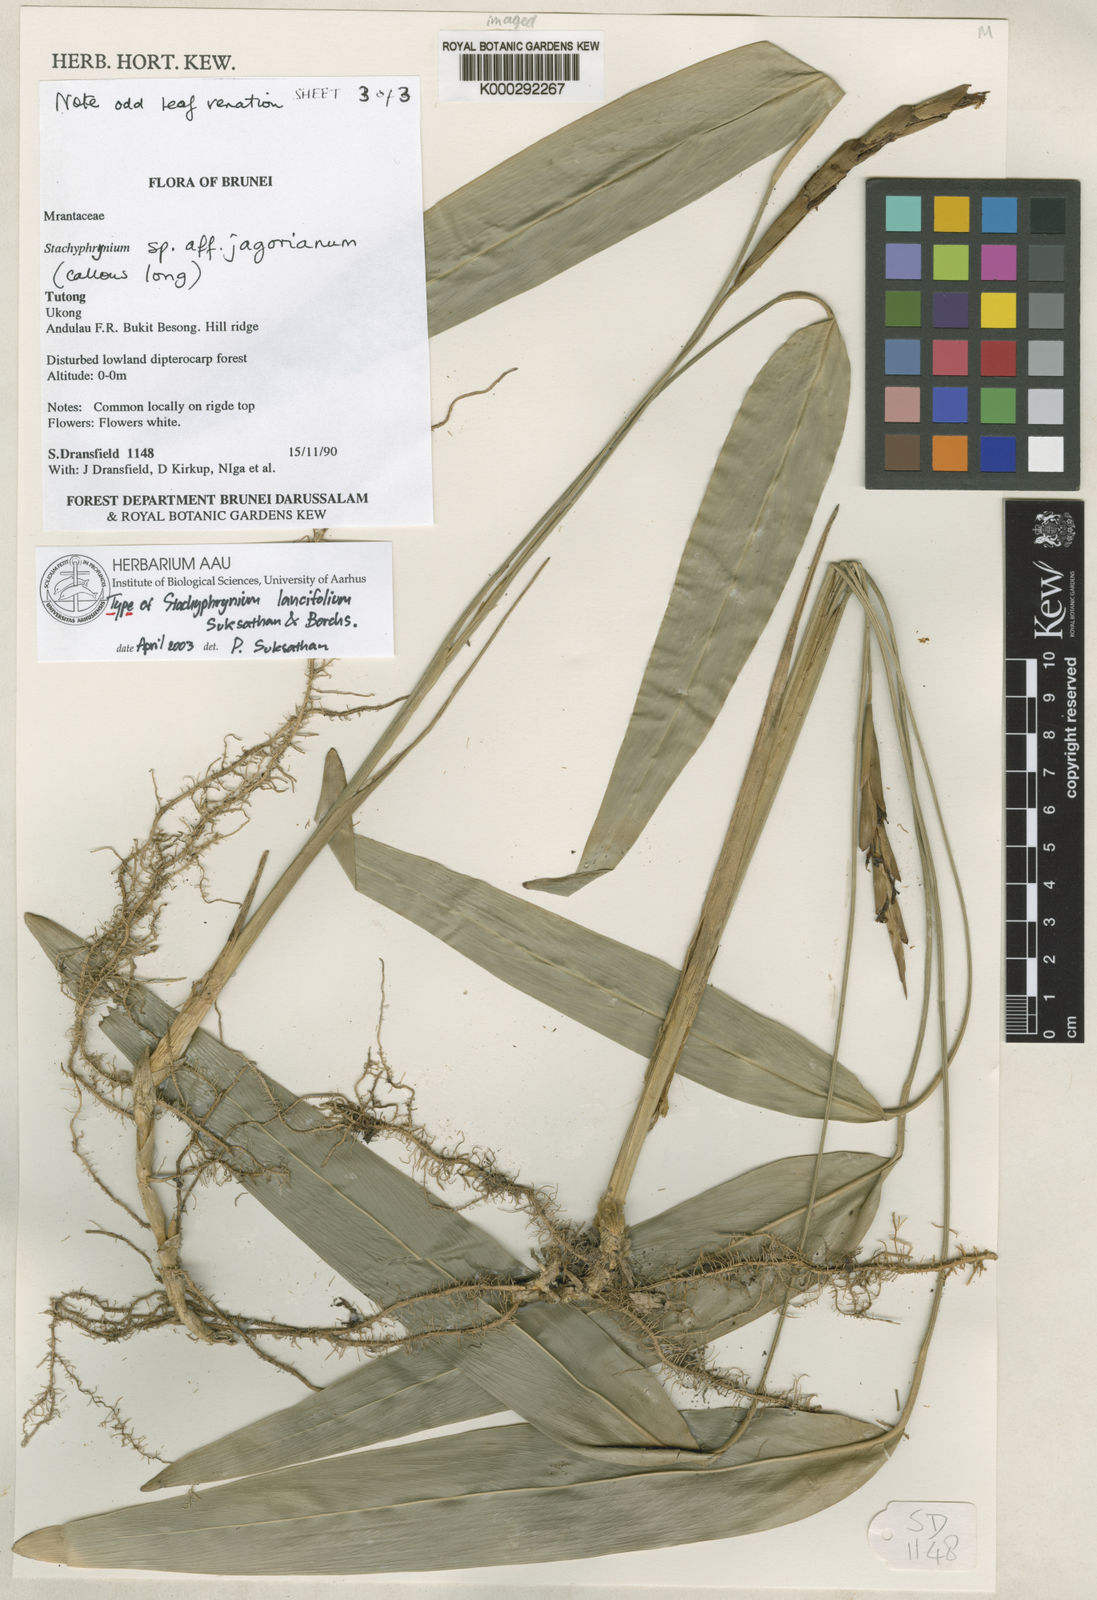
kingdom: Plantae
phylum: Tracheophyta
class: Liliopsida
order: Zingiberales
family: Marantaceae
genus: Stachyphrynium
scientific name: Stachyphrynium lancifolium
